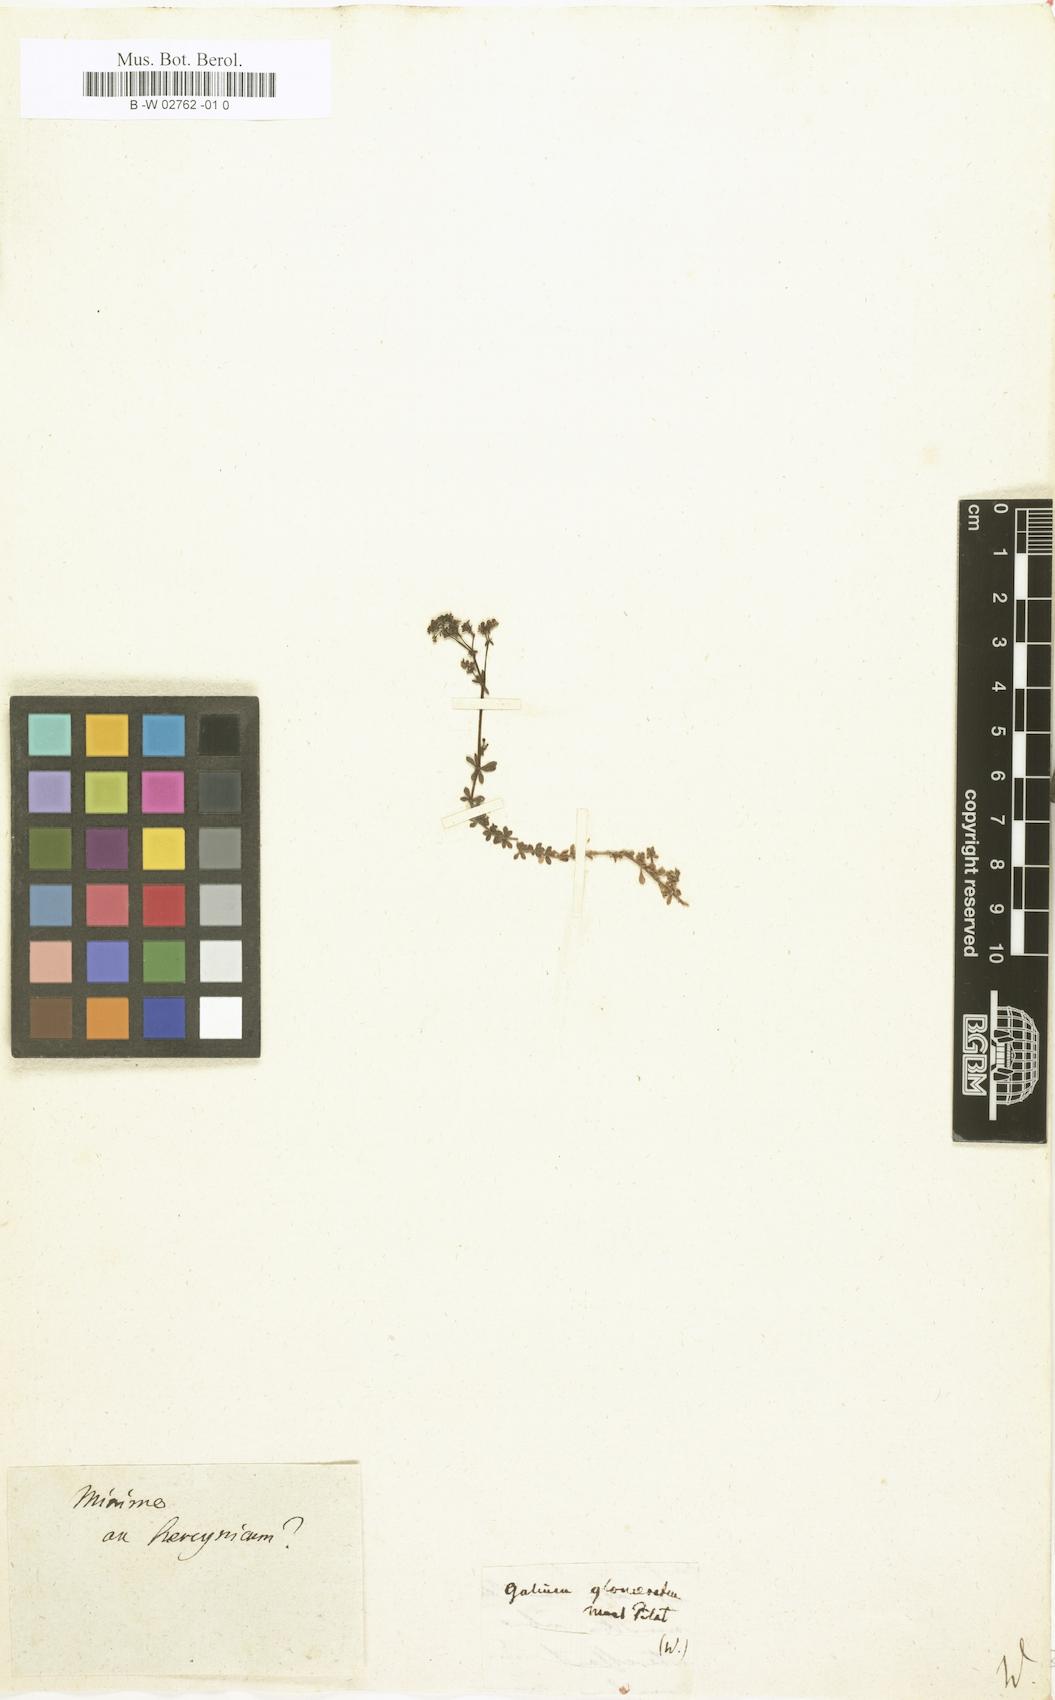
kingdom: Plantae
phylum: Tracheophyta
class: Magnoliopsida
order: Gentianales
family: Rubiaceae
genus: Galium
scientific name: Galium
